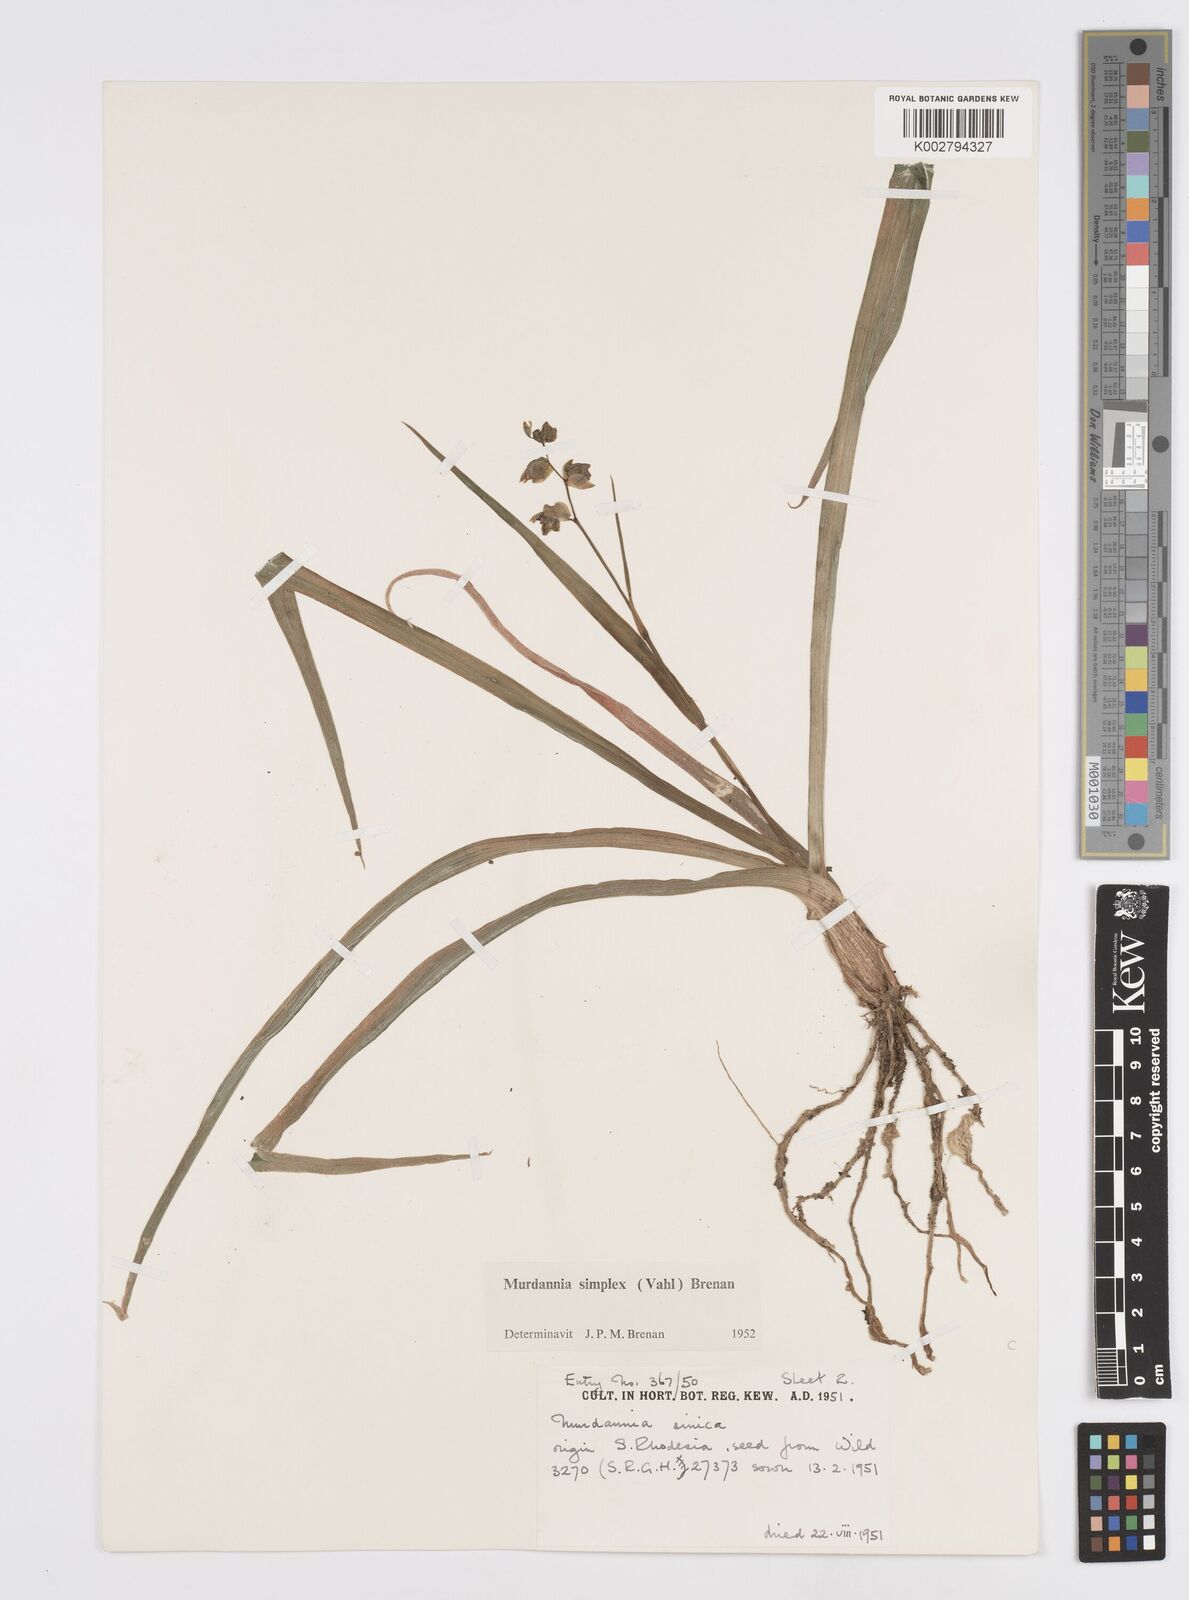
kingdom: Plantae
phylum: Tracheophyta
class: Liliopsida
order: Commelinales
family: Commelinaceae
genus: Murdannia
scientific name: Murdannia simplex
